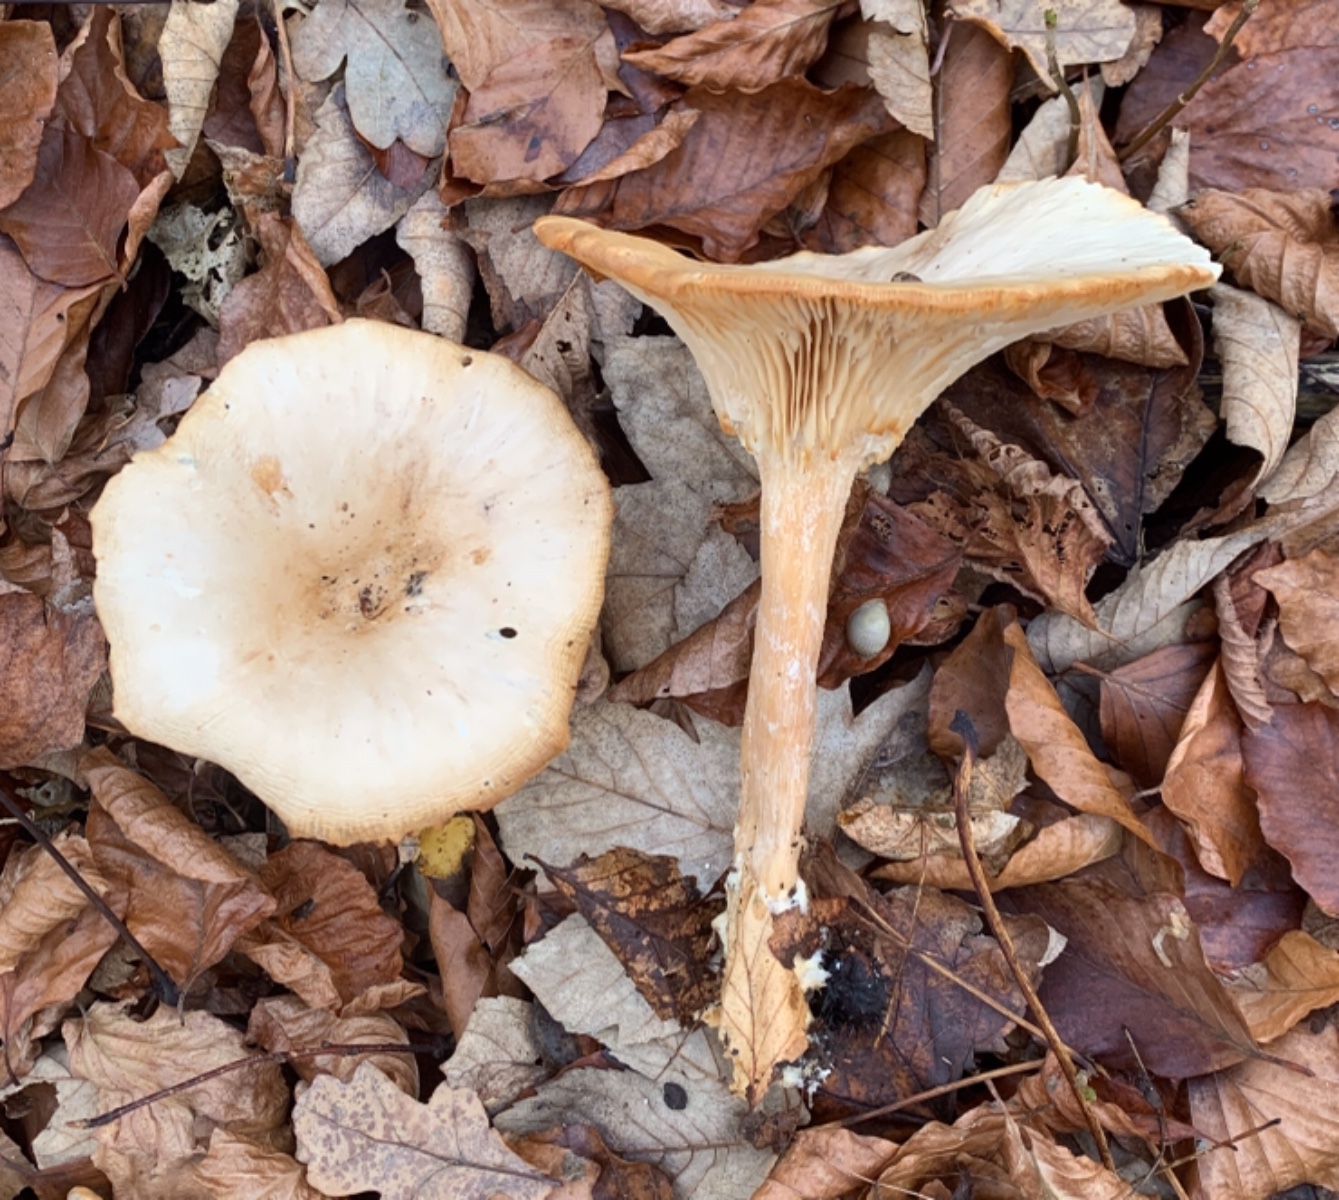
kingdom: Fungi
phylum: Basidiomycota
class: Agaricomycetes
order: Agaricales
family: Tricholomataceae
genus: Infundibulicybe
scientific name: Infundibulicybe geotropa
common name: stor tragthat
